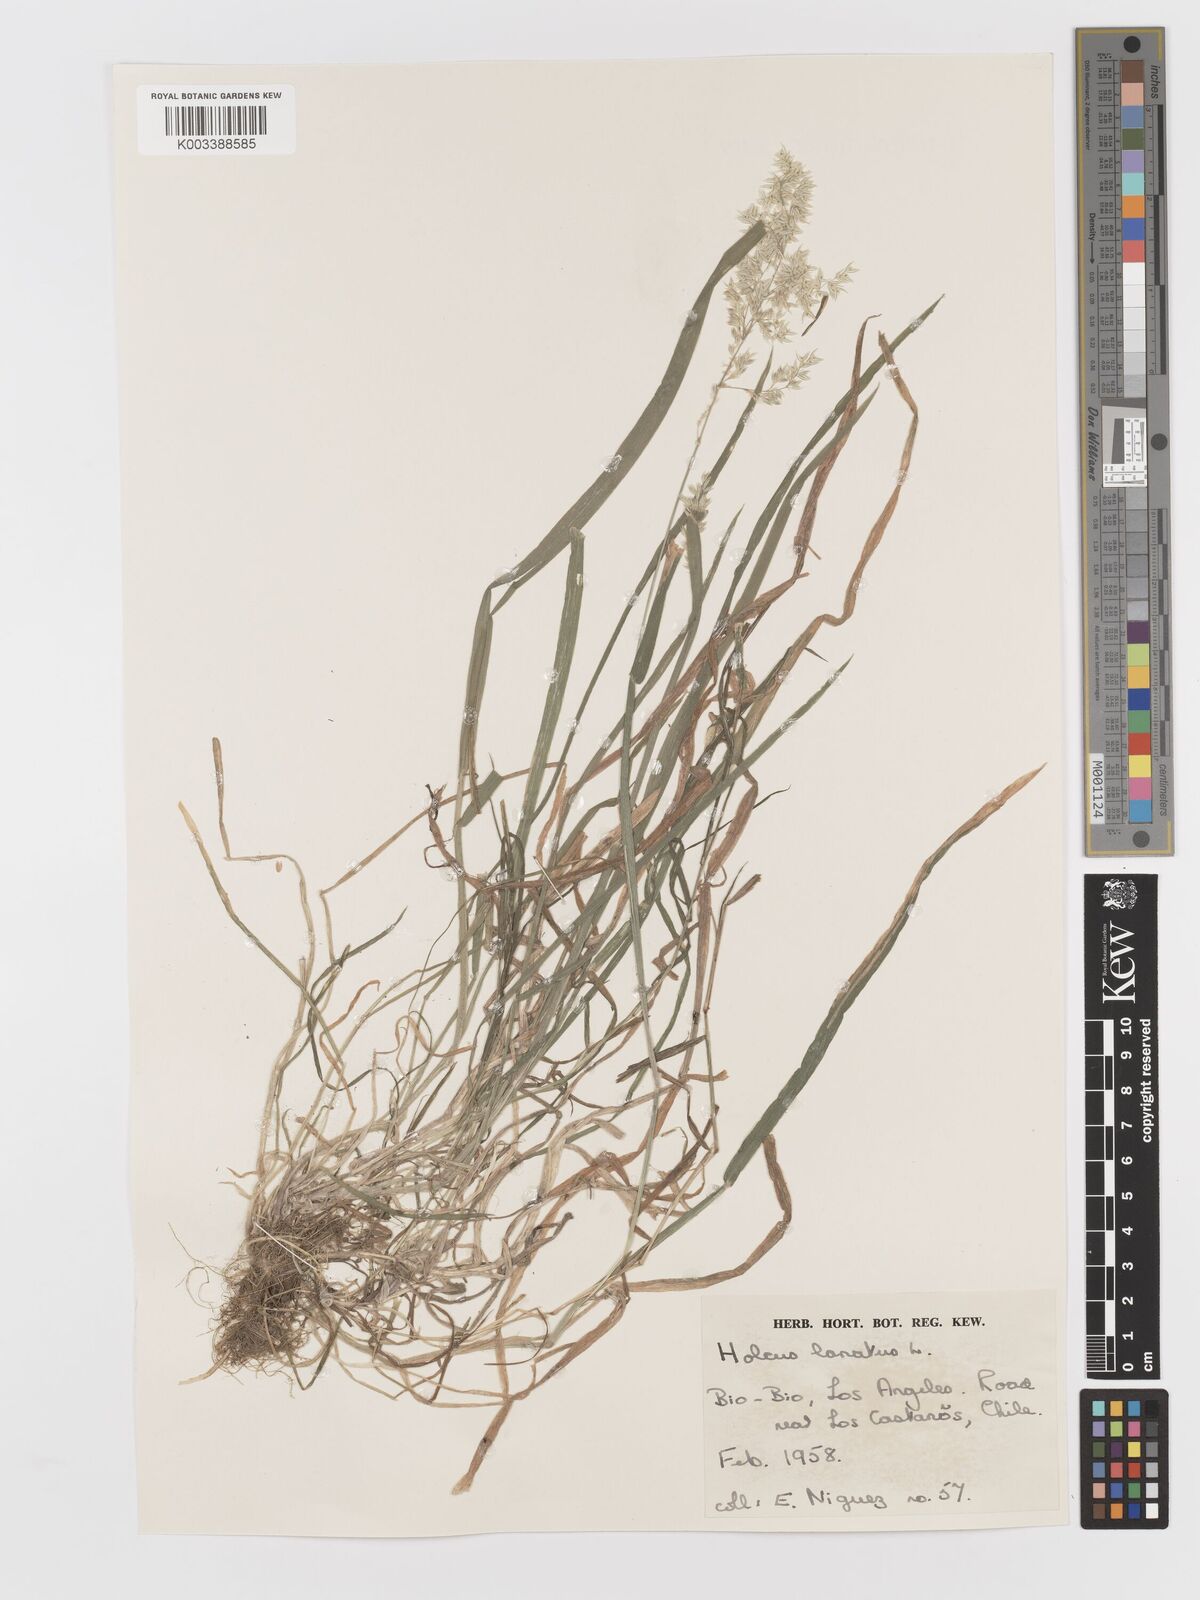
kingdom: Plantae
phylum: Tracheophyta
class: Liliopsida
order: Poales
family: Poaceae
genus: Holcus
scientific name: Holcus lanatus
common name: Yorkshire-fog
